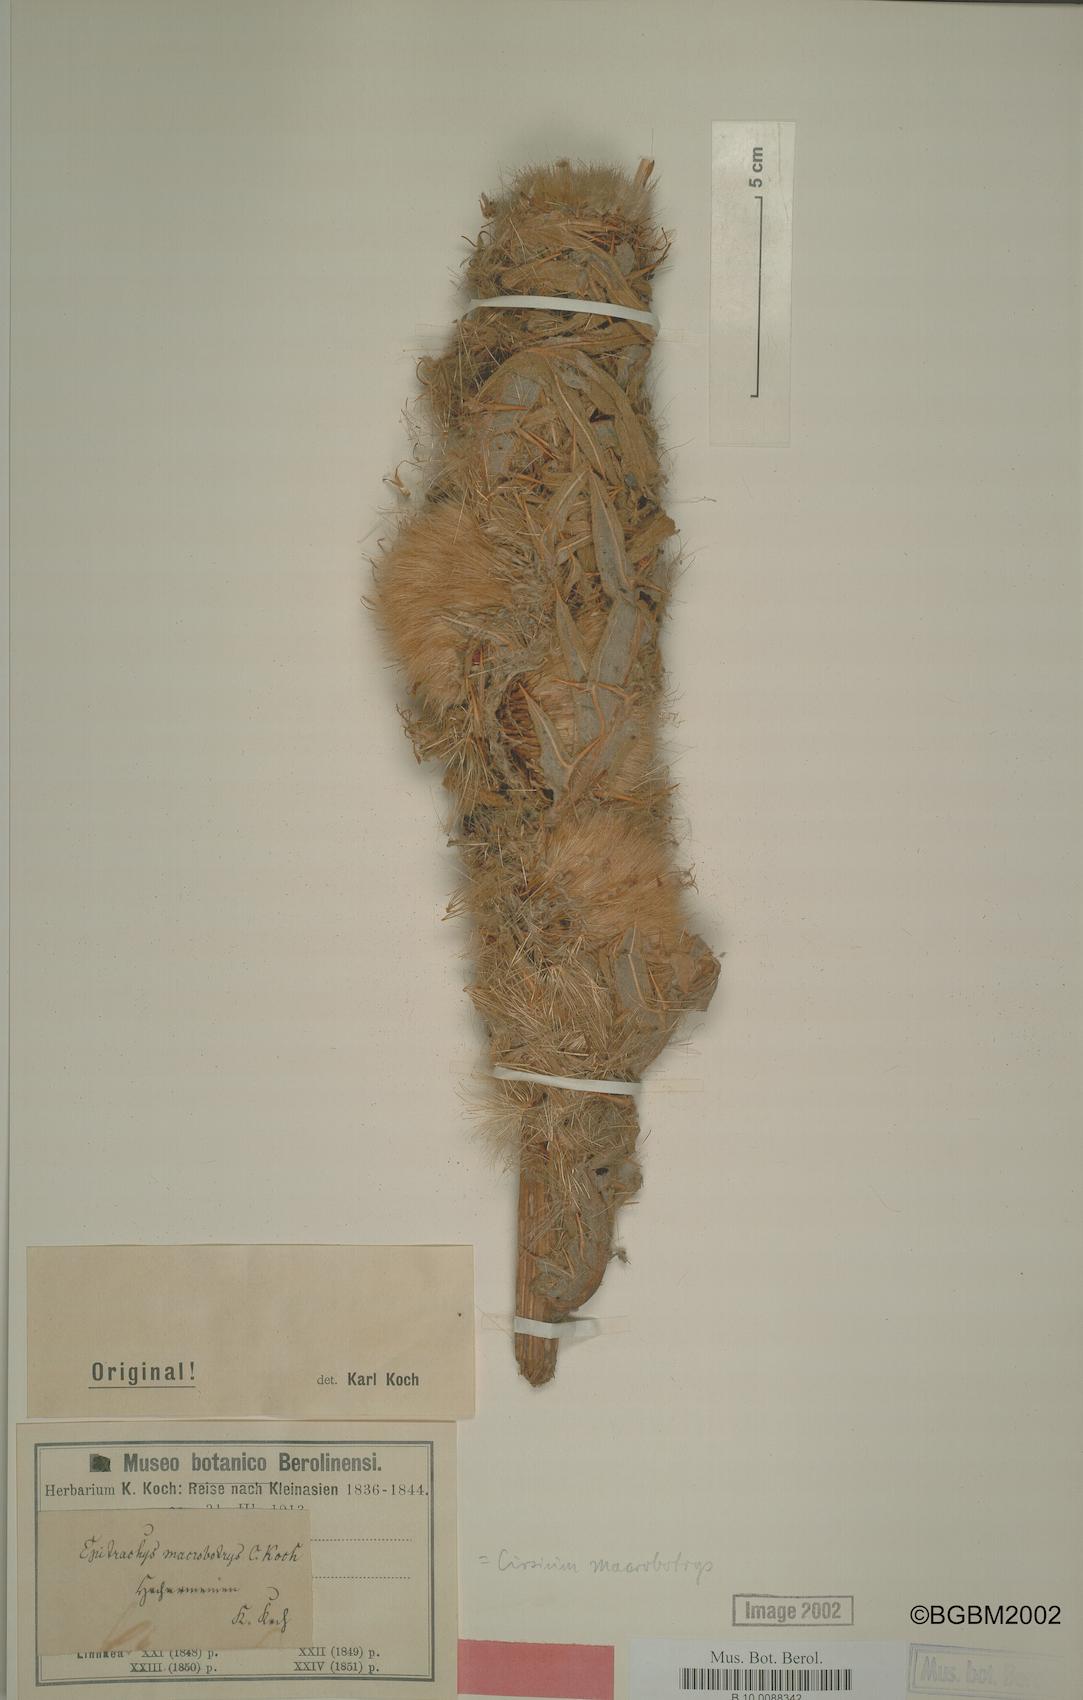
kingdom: Plantae
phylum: Tracheophyta
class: Magnoliopsida
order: Asterales
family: Asteraceae
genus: Lophiolepis
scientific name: Lophiolepis macrobotrys
